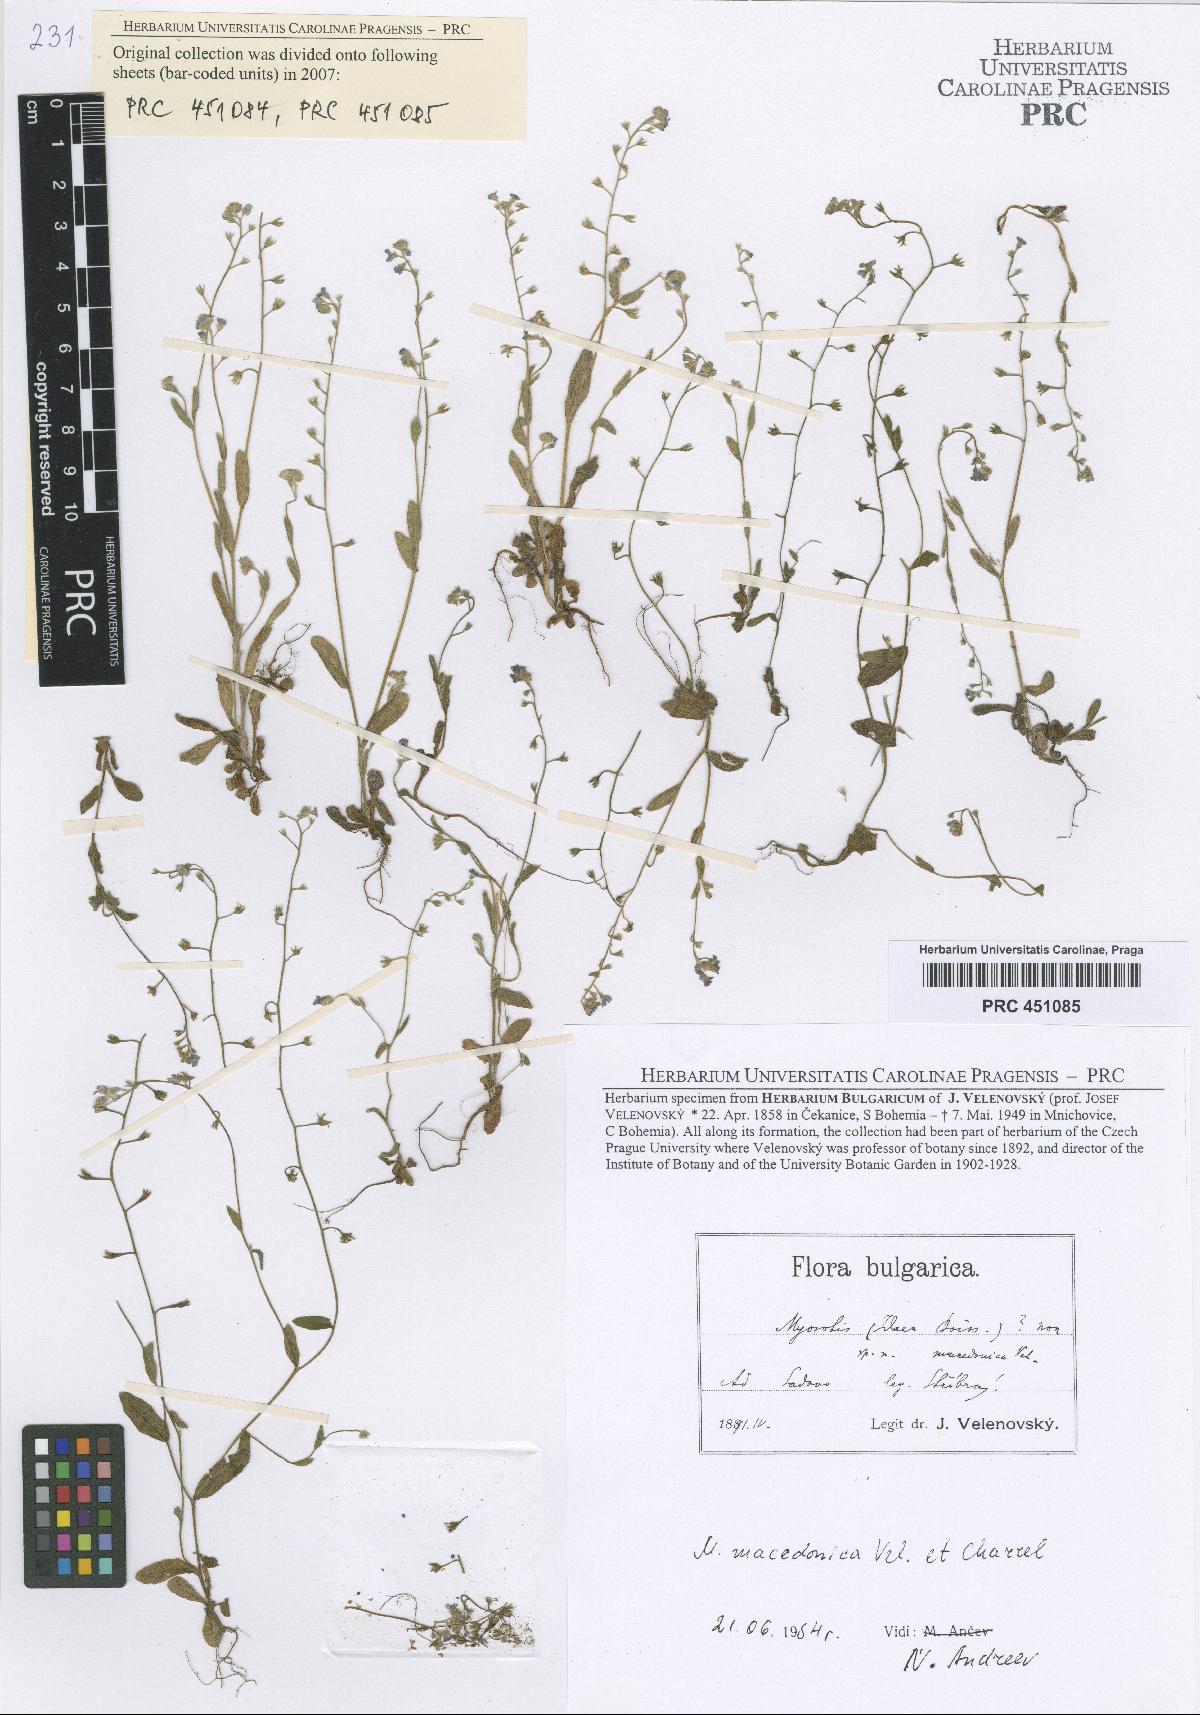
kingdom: Plantae
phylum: Tracheophyta
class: Magnoliopsida
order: Boraginales
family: Boraginaceae
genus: Myosotis
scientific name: Myosotis incrassata
